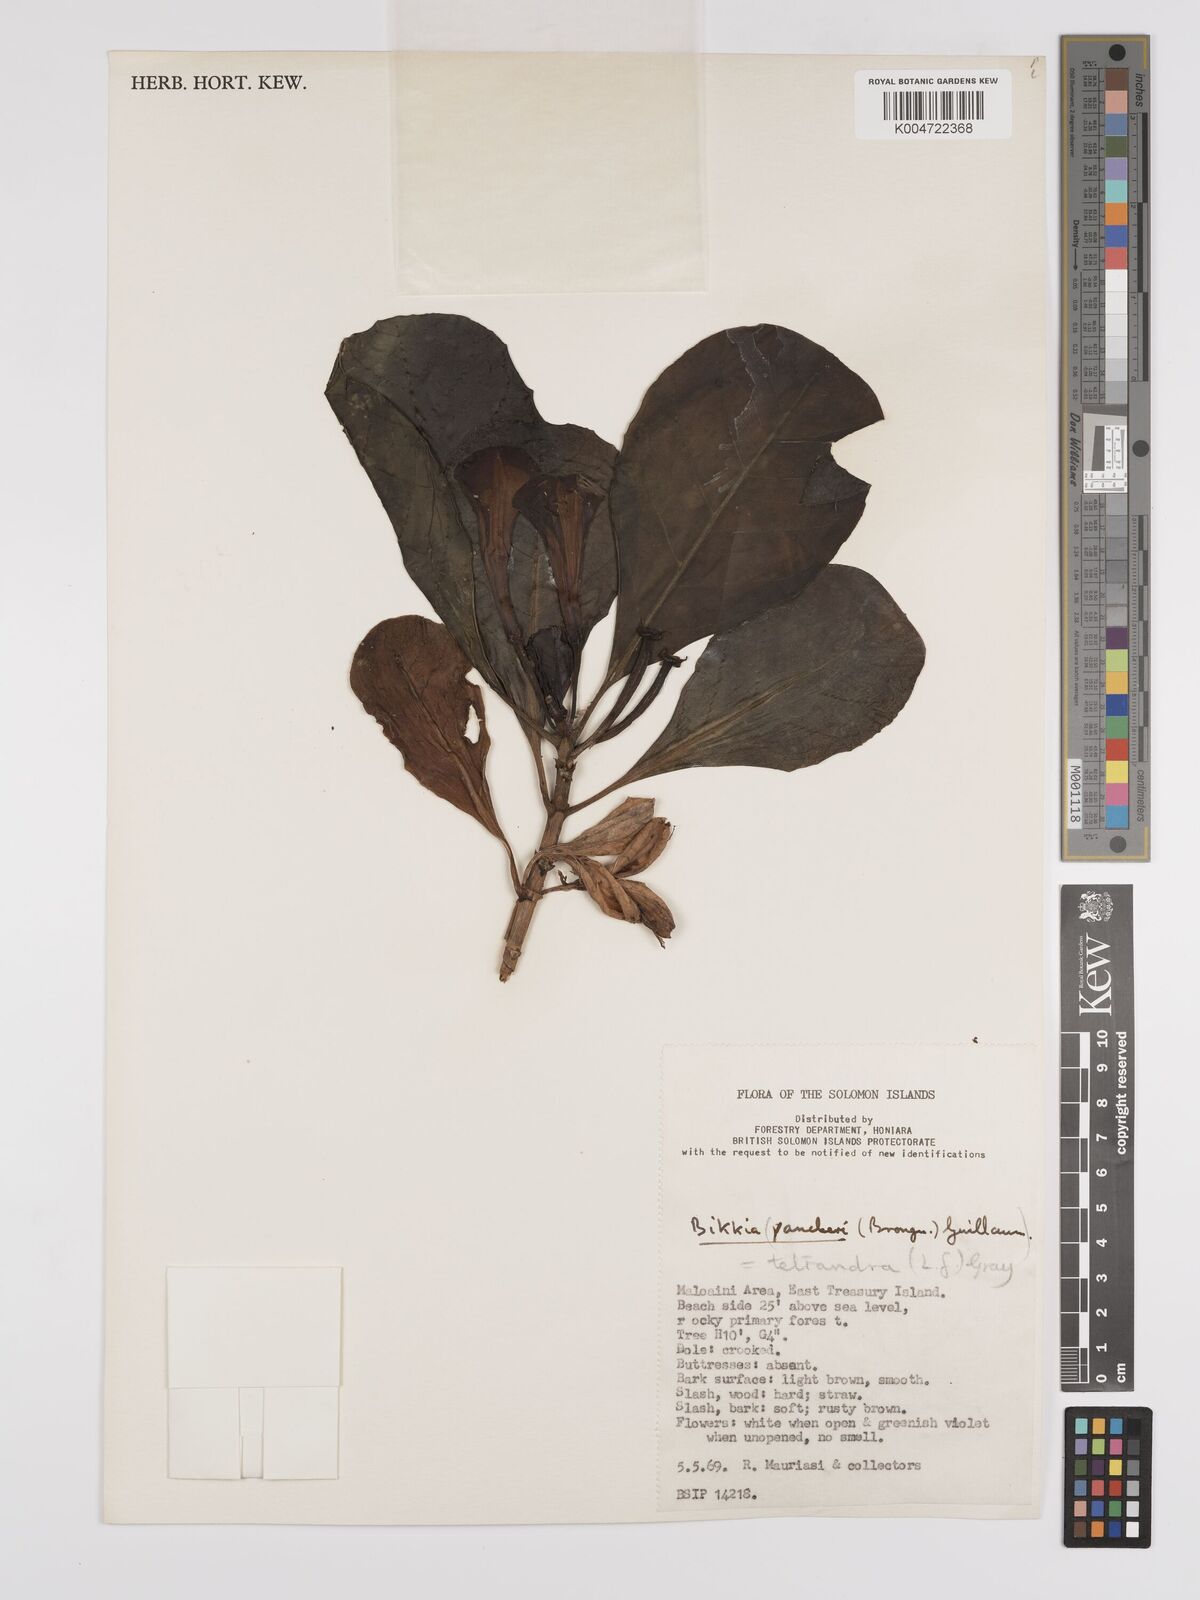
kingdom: Plantae
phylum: Tracheophyta
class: Magnoliopsida
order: Gentianales
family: Rubiaceae
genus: Bikkia
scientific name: Bikkia
